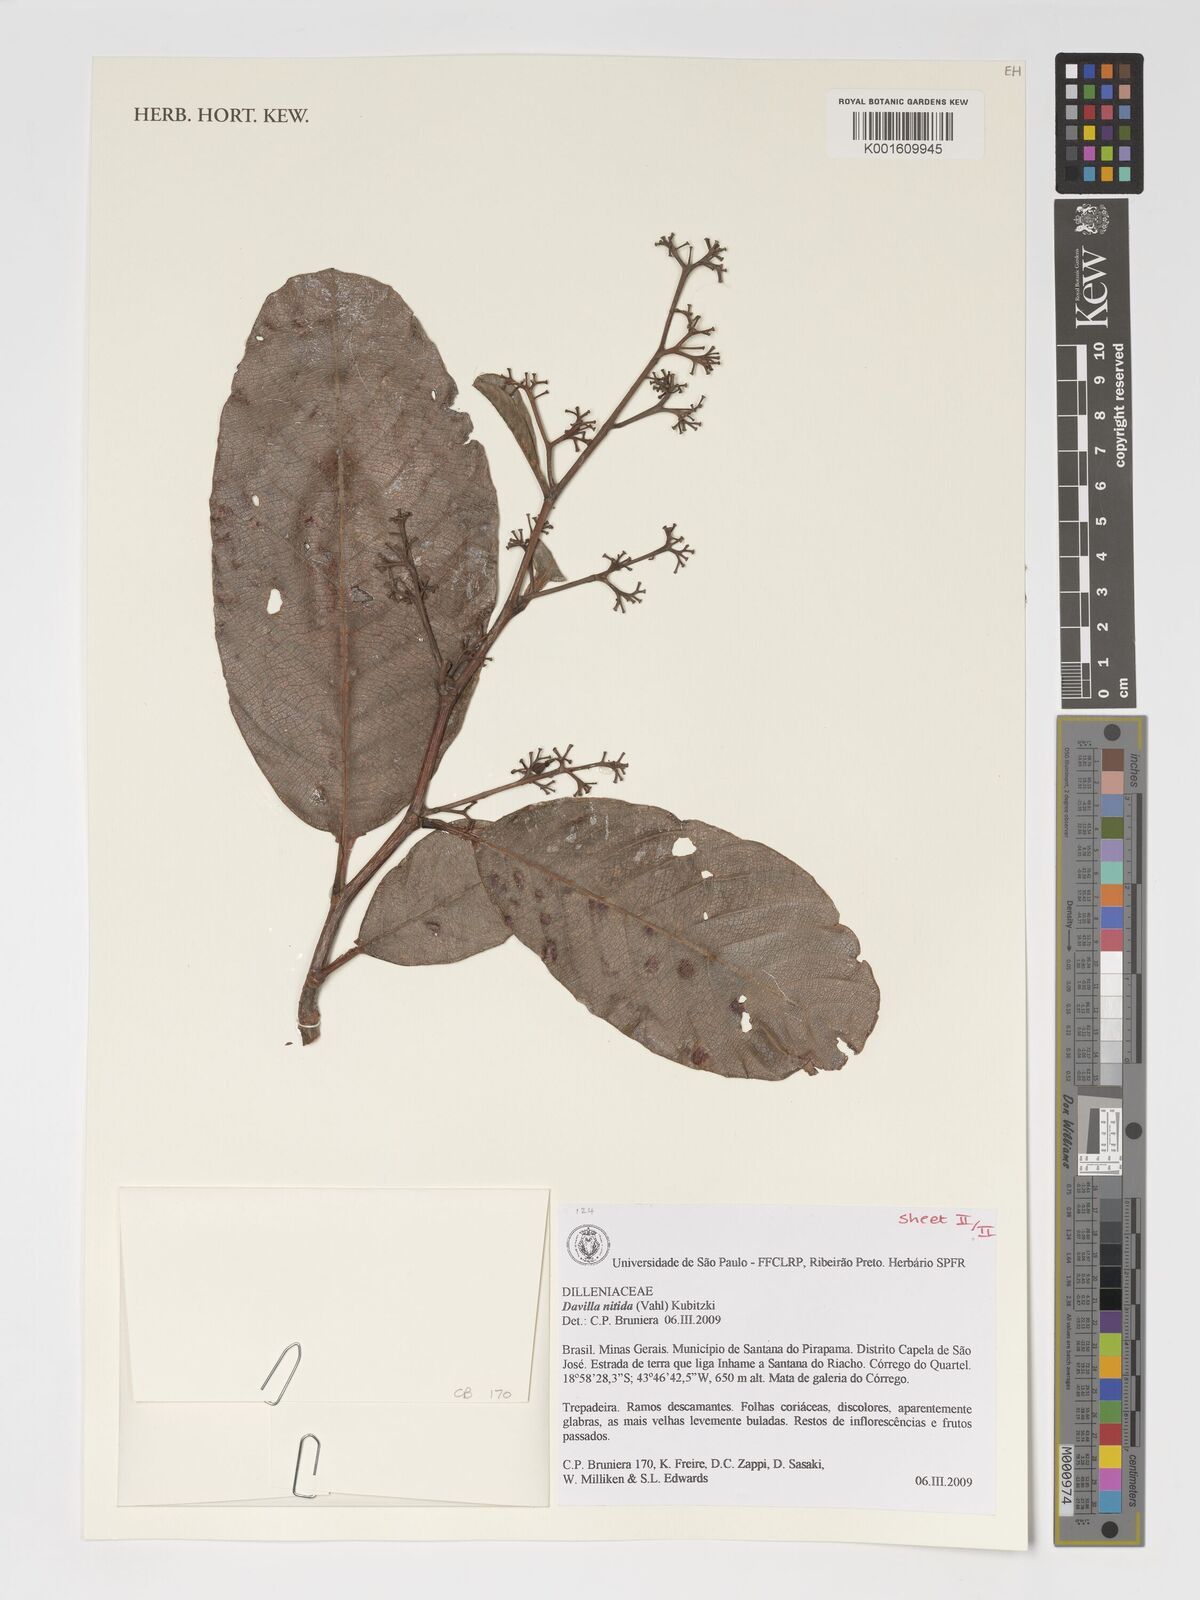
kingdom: Plantae
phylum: Tracheophyta
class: Magnoliopsida
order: Dilleniales
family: Dilleniaceae
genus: Davilla
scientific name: Davilla nitida
